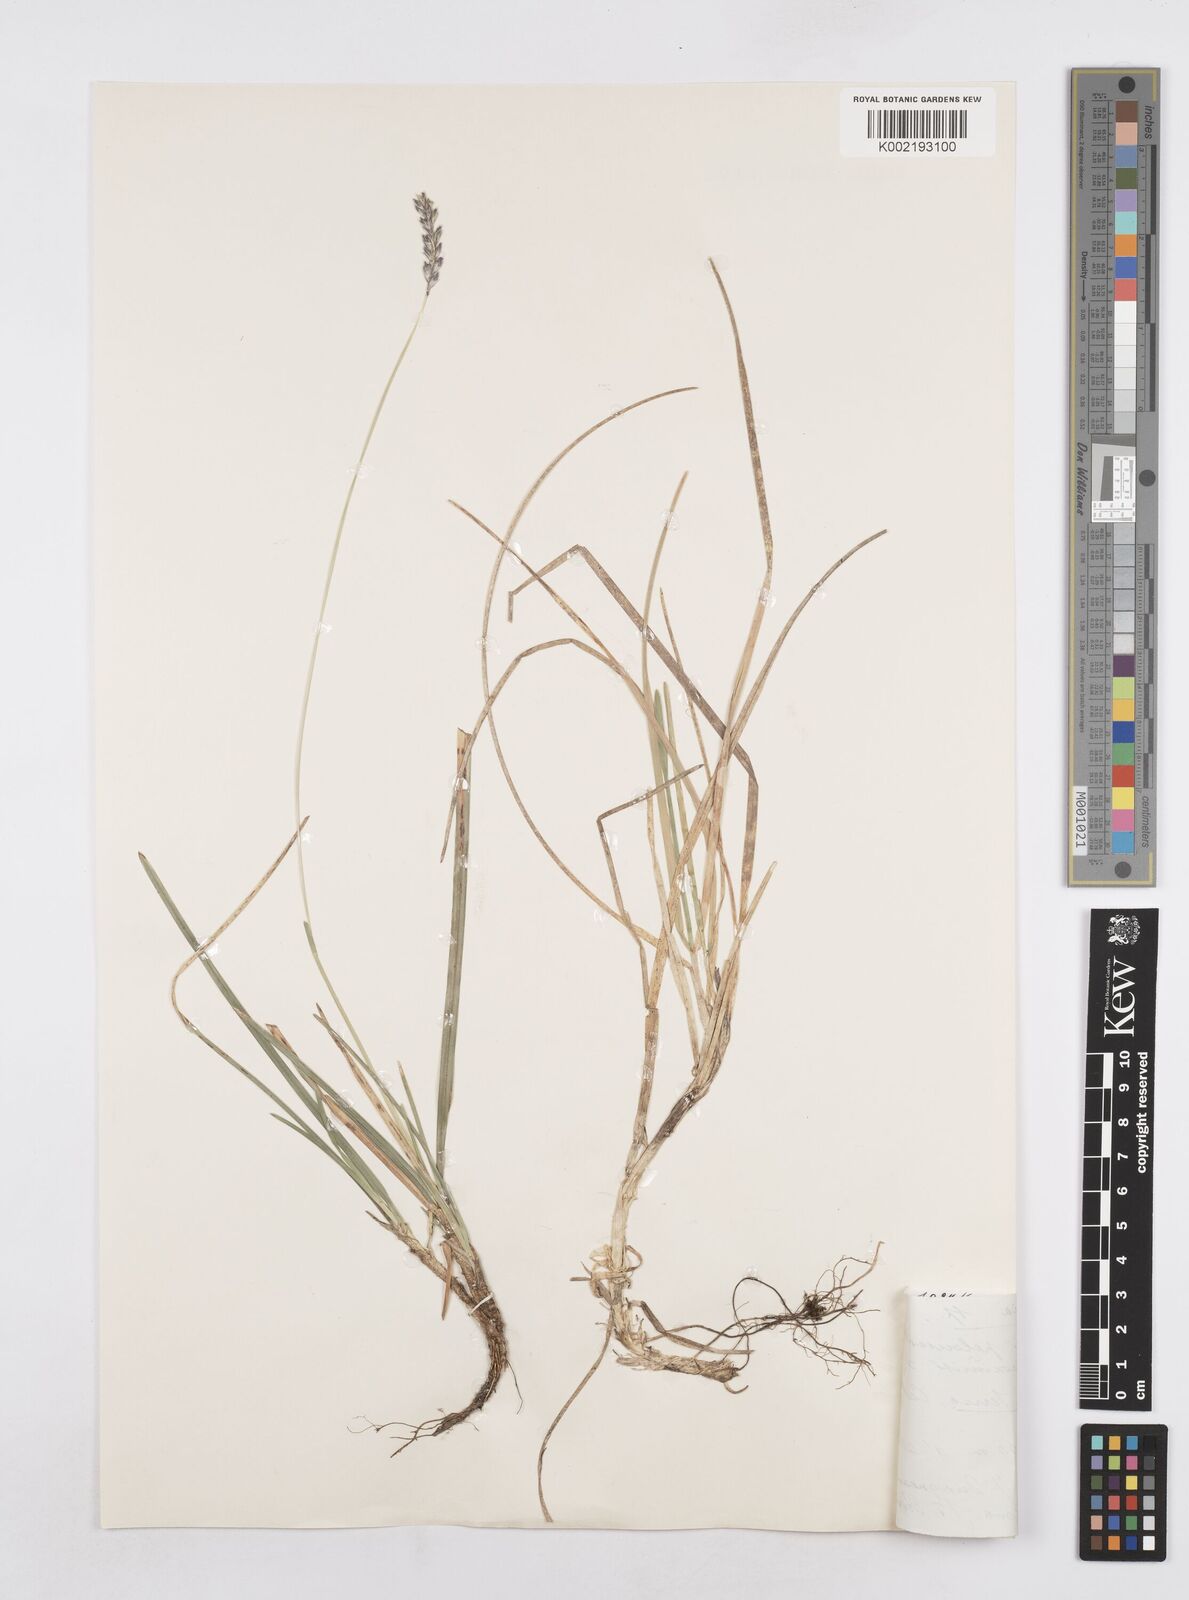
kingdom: Plantae
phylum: Tracheophyta
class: Liliopsida
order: Poales
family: Poaceae
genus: Sesleria
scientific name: Sesleria
